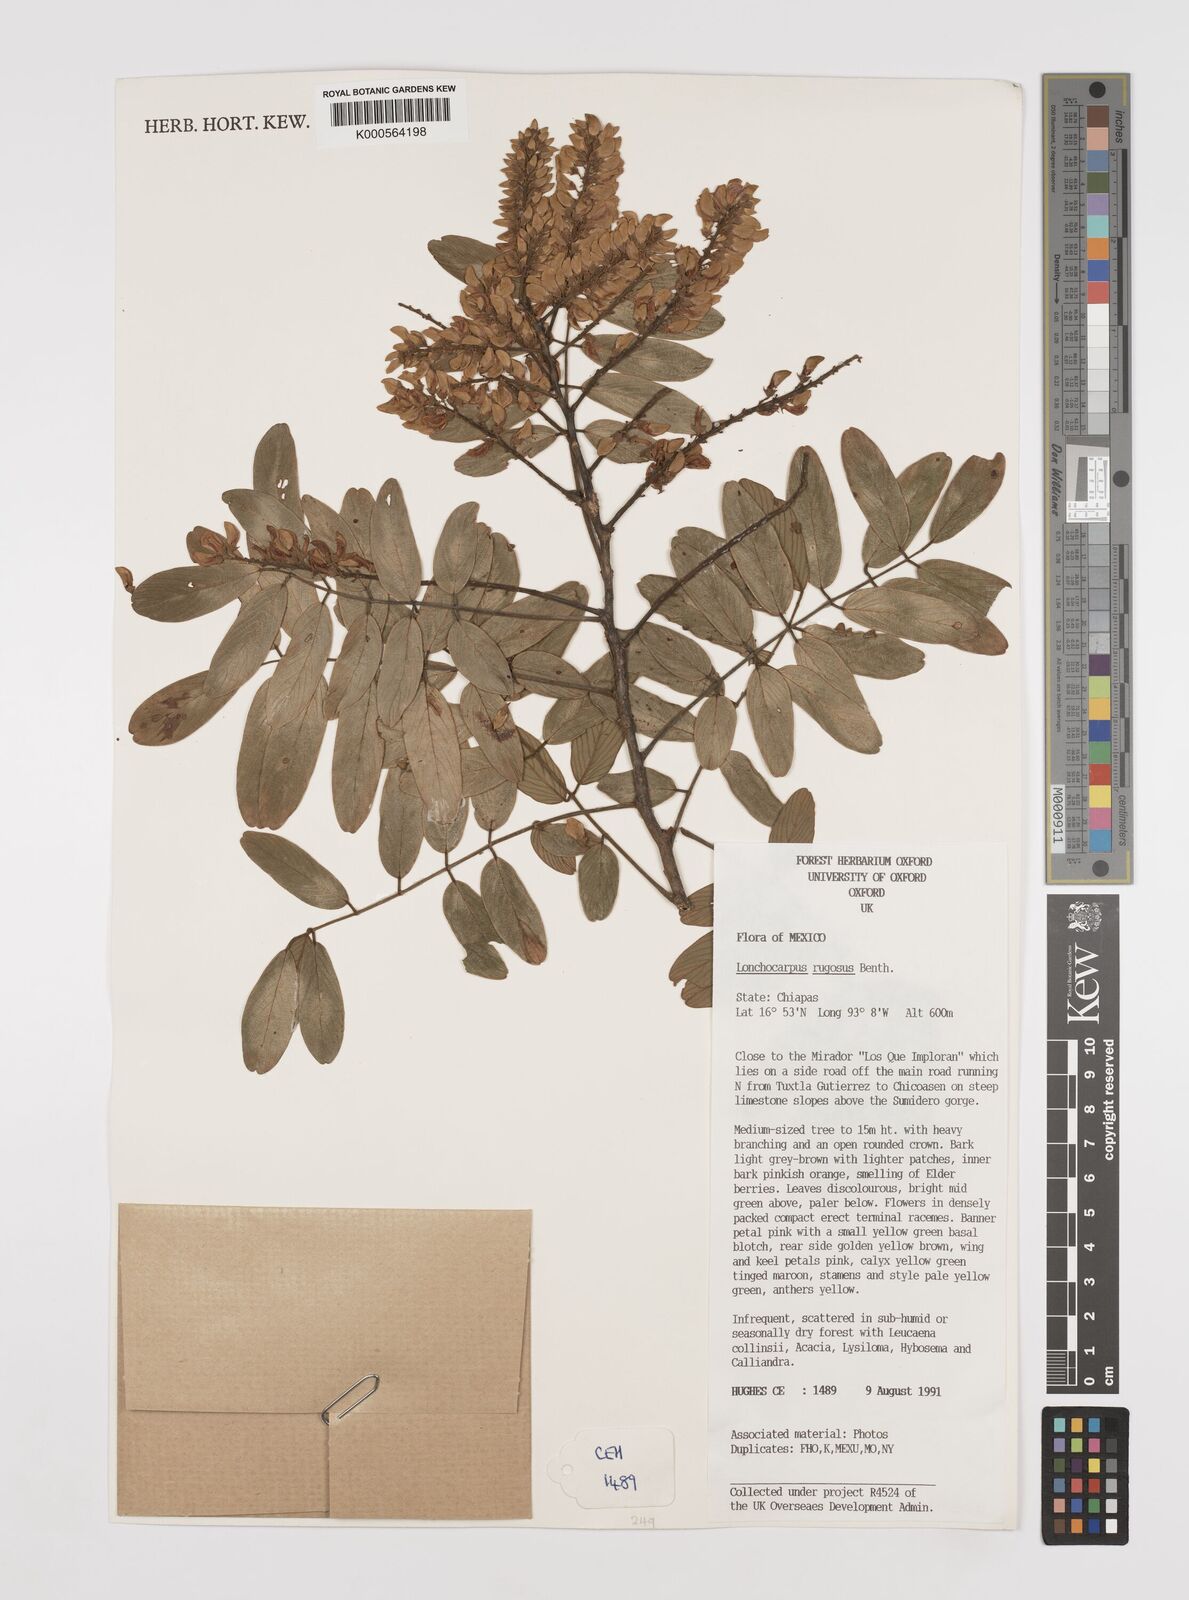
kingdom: Plantae
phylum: Tracheophyta
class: Magnoliopsida
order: Fabales
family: Fabaceae
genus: Lonchocarpus
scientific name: Lonchocarpus rugosus
